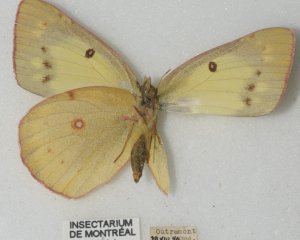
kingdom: Animalia
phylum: Arthropoda
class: Insecta
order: Lepidoptera
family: Pieridae
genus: Colias
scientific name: Colias philodice
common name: Clouded Sulphur
